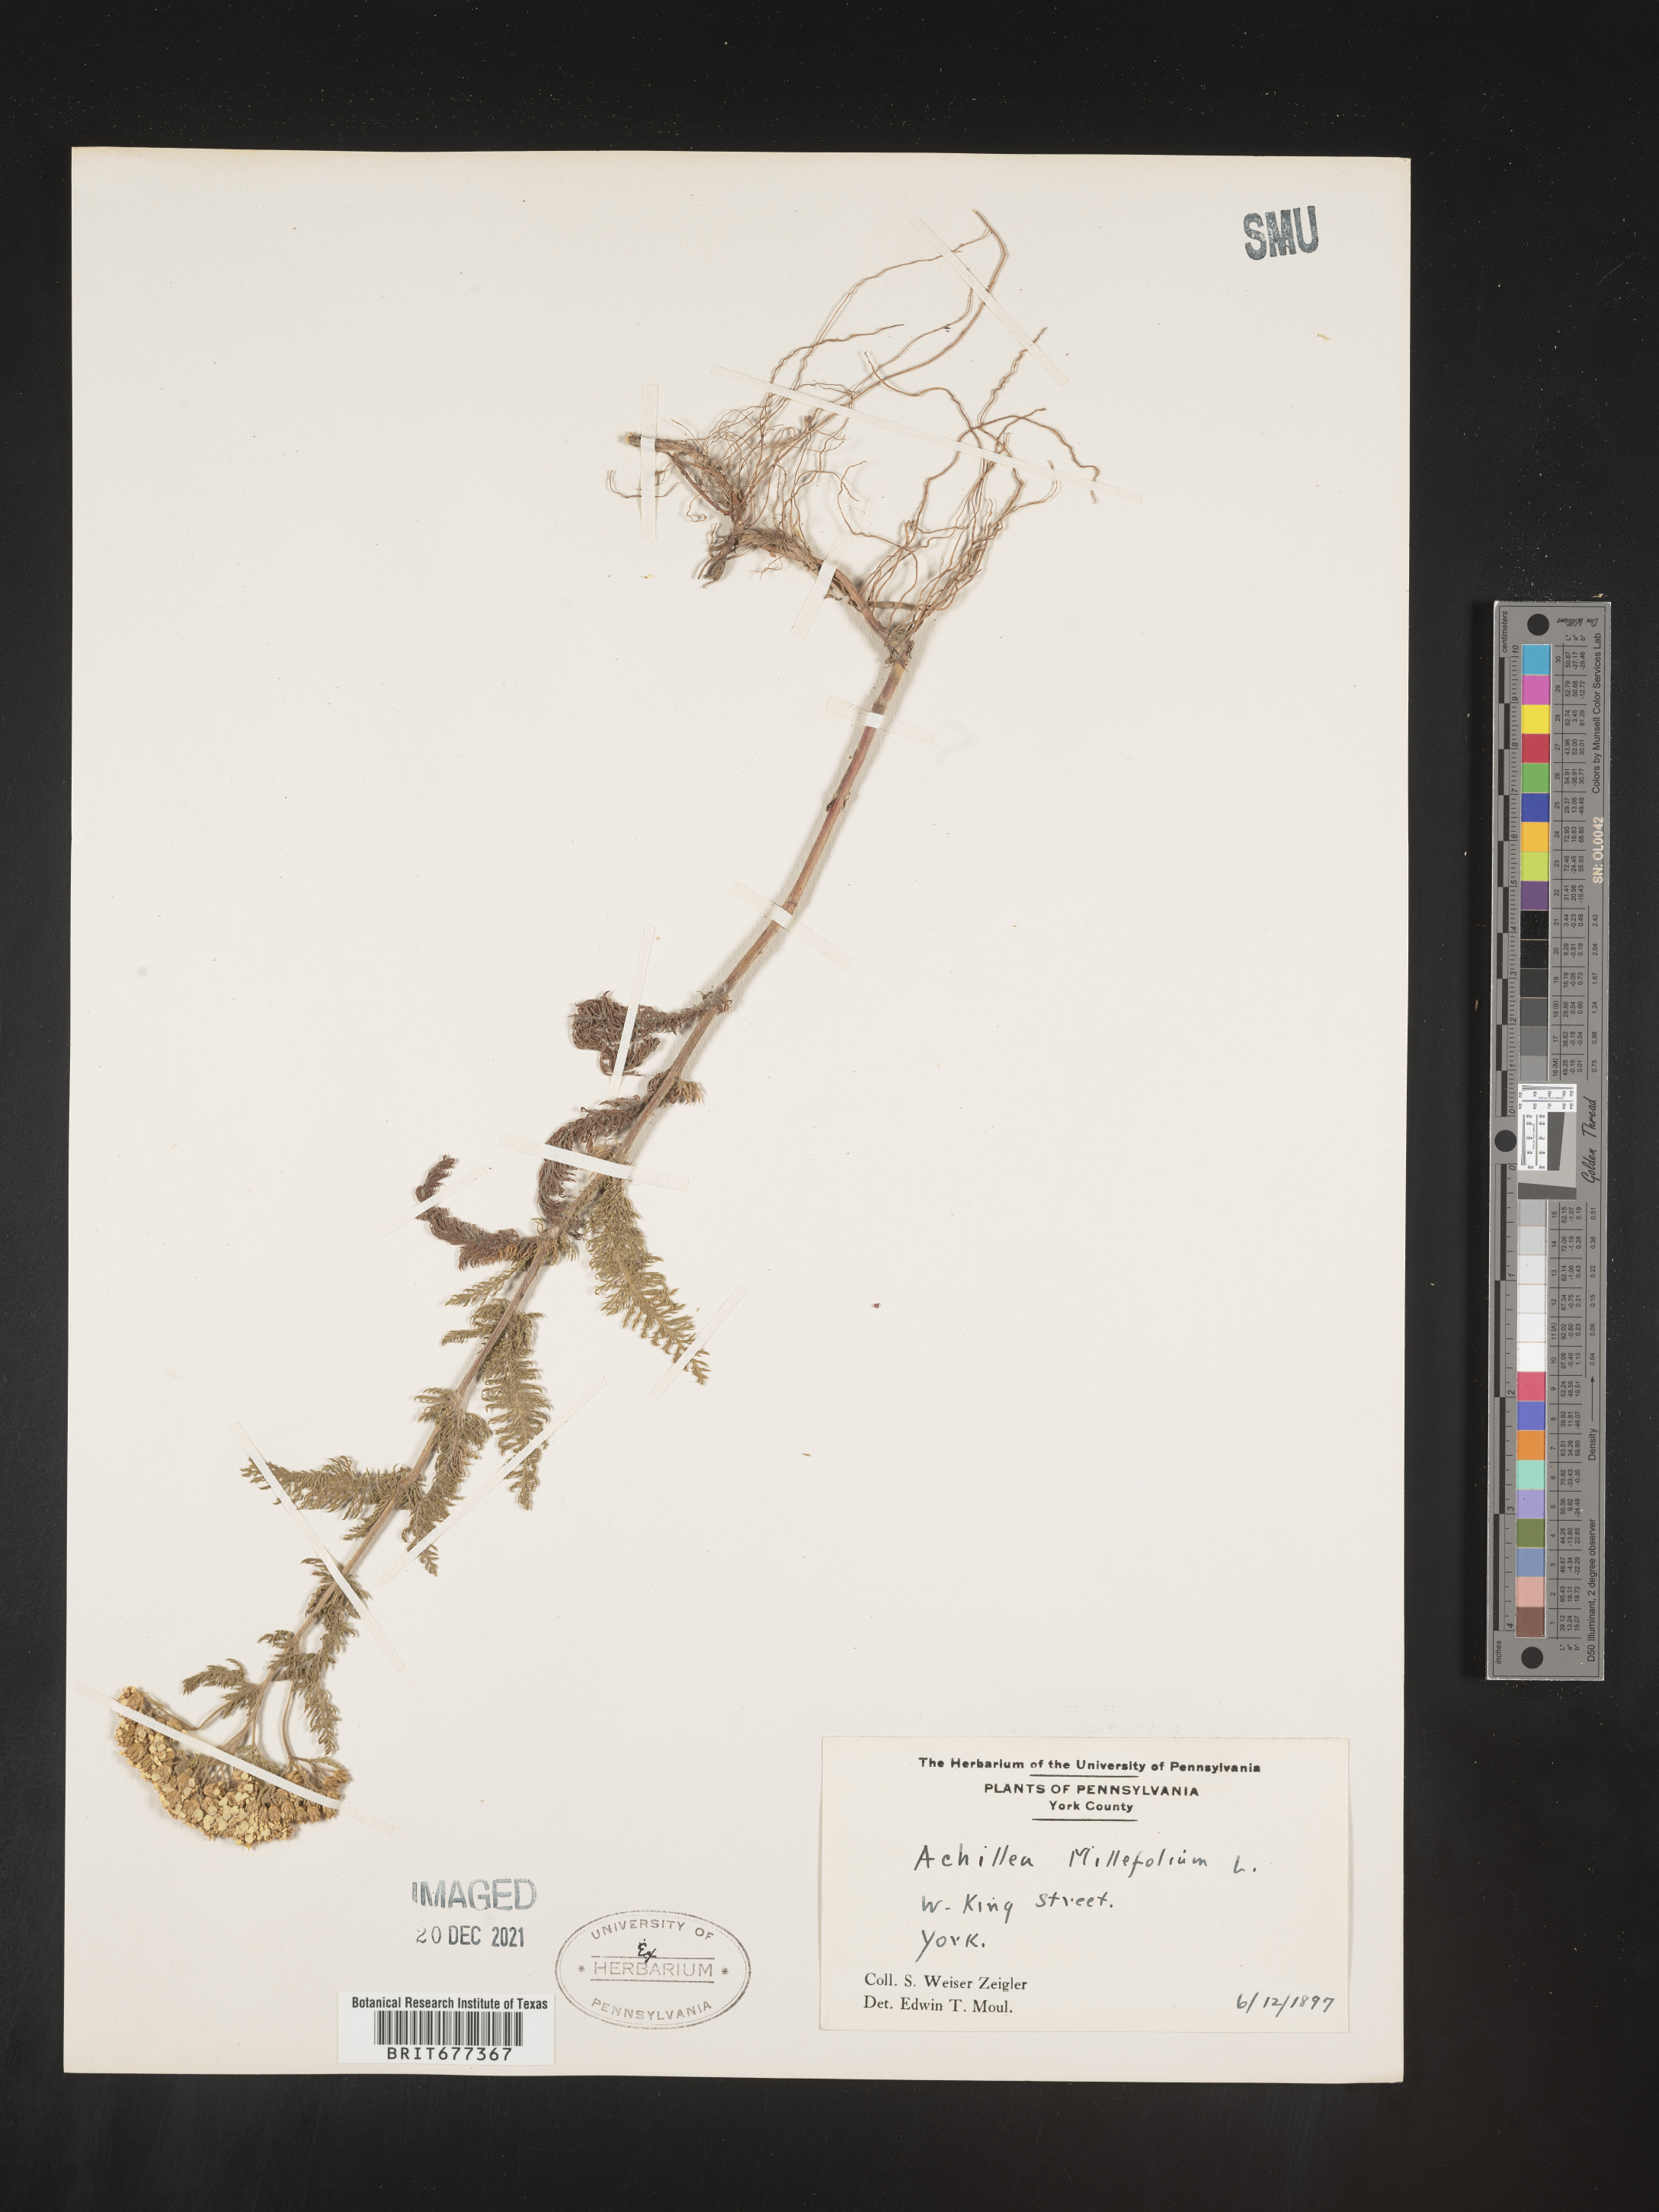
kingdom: Plantae
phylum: Tracheophyta
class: Magnoliopsida
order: Asterales
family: Asteraceae
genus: Achillea
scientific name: Achillea millefolium
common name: Yarrow
